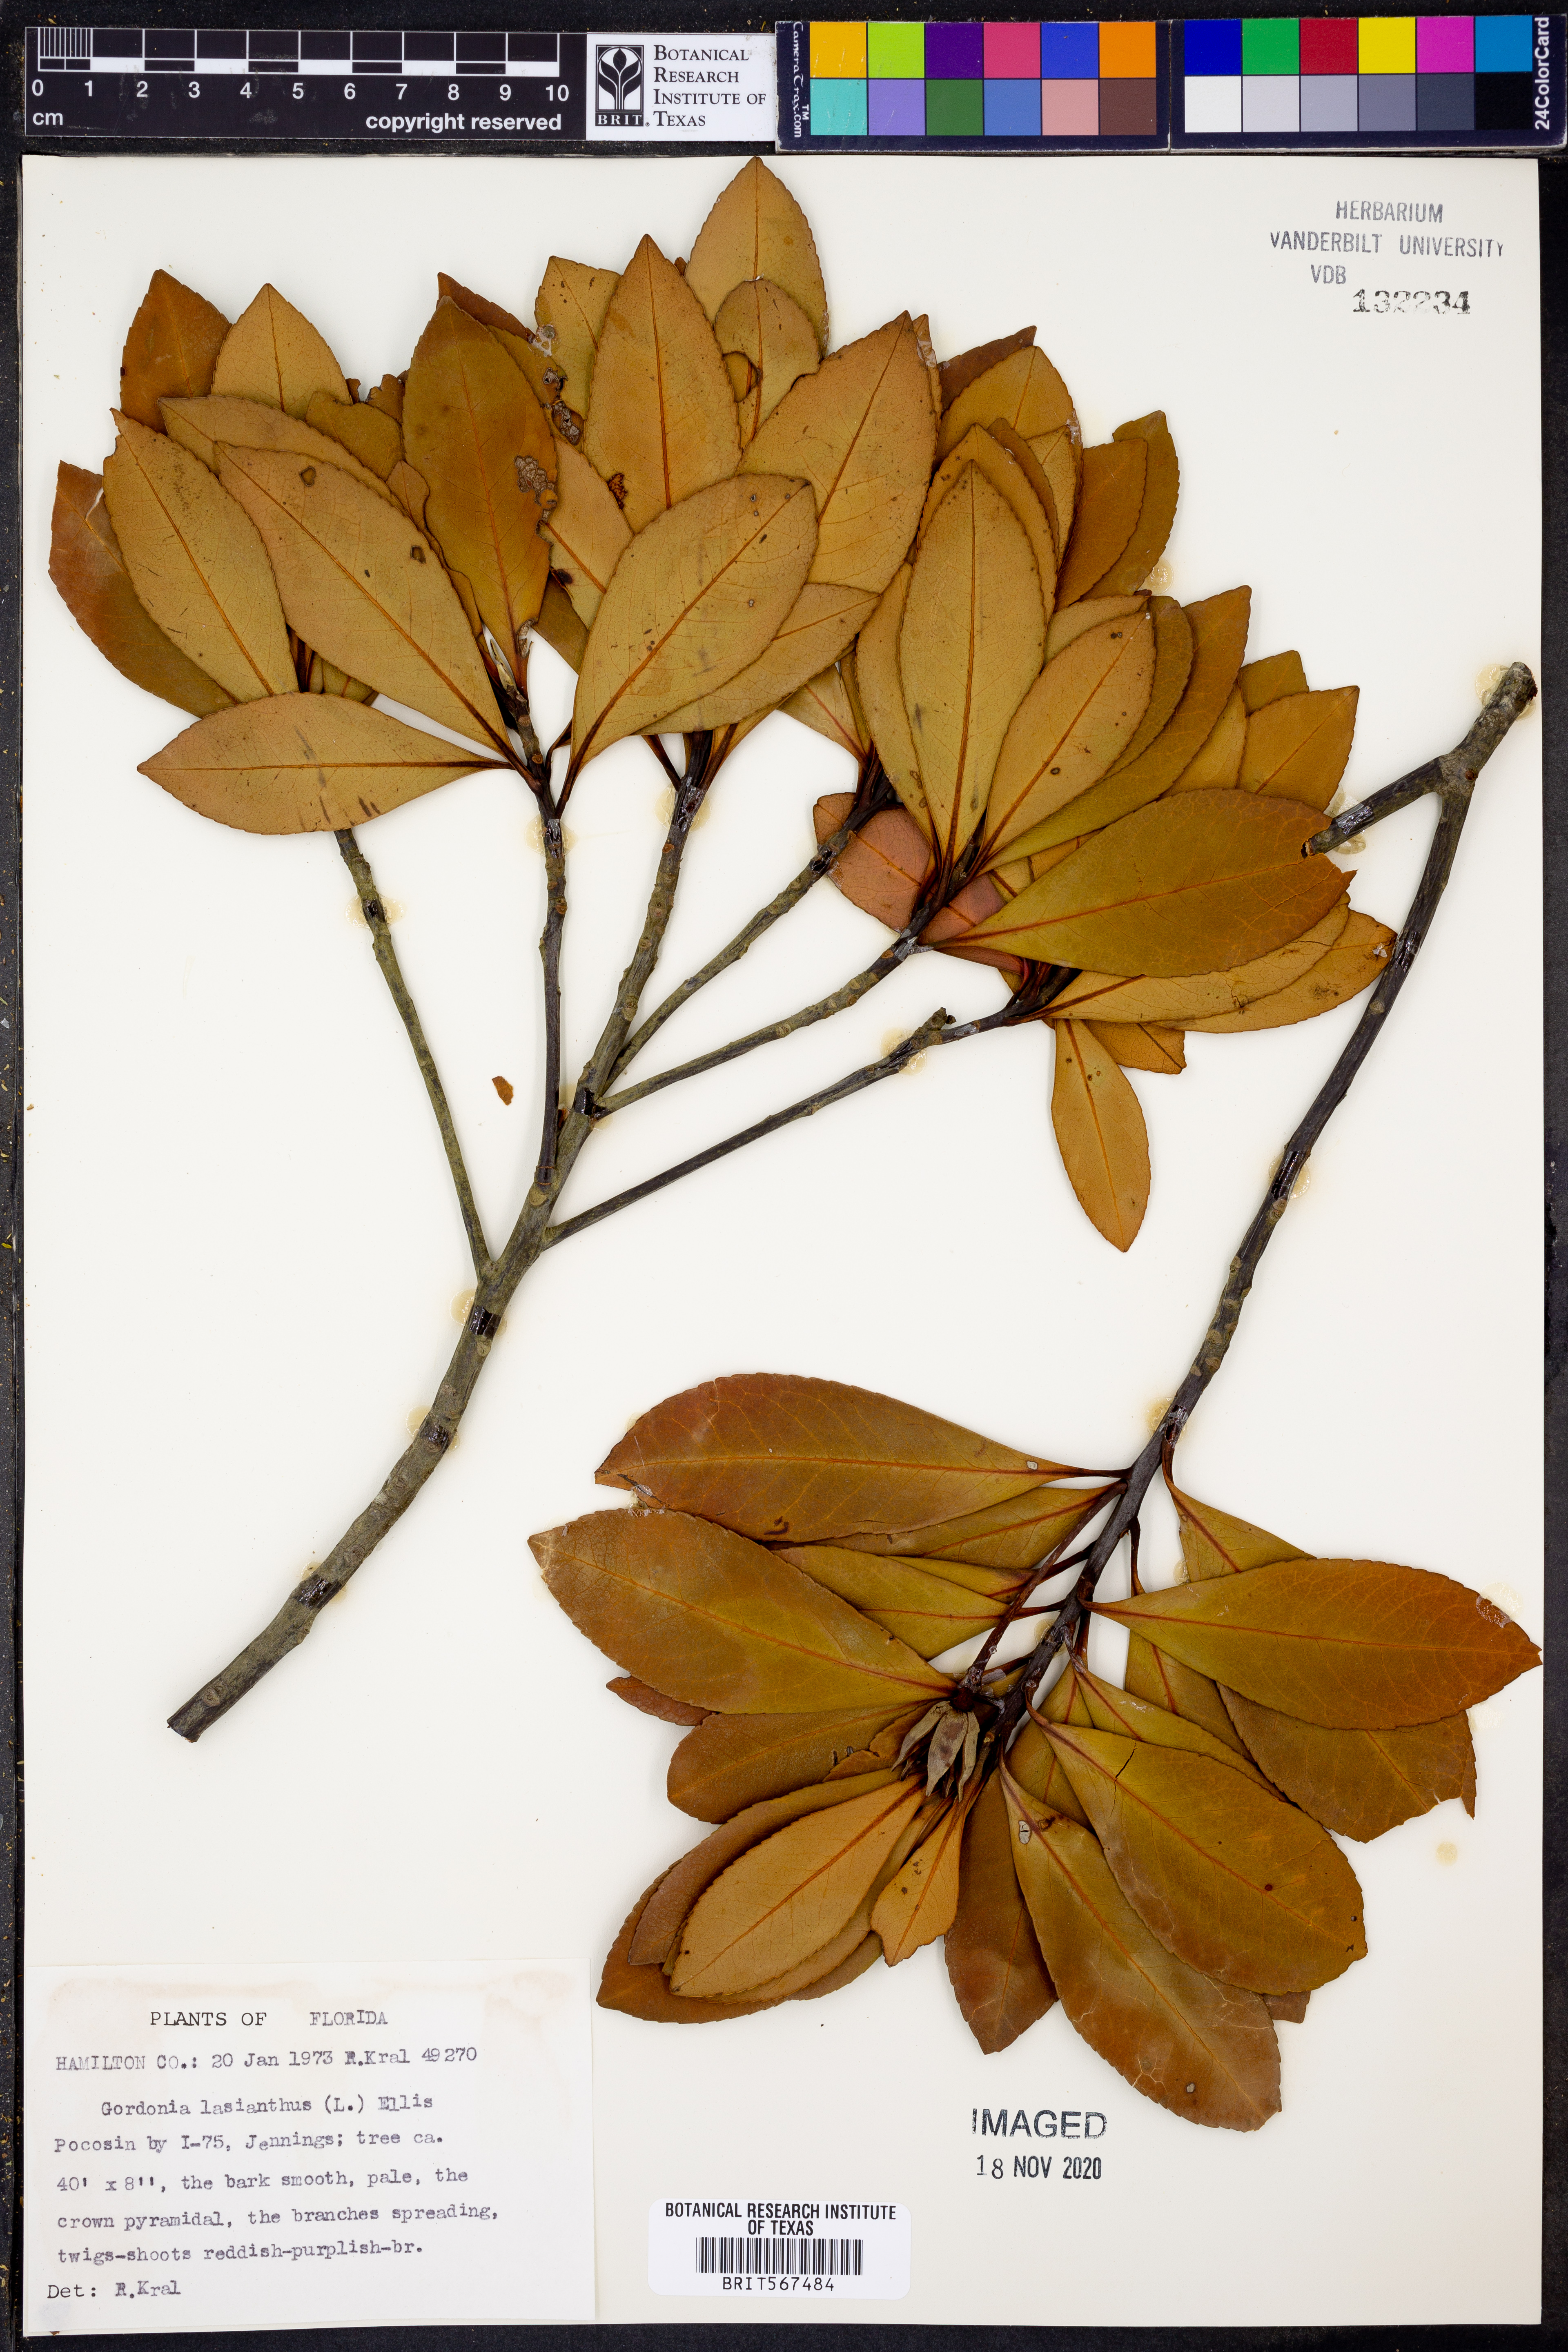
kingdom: Plantae
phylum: Tracheophyta
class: Magnoliopsida
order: Ericales
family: Theaceae
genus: Gordonia
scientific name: Gordonia lasianthus
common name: Loblolly bay
